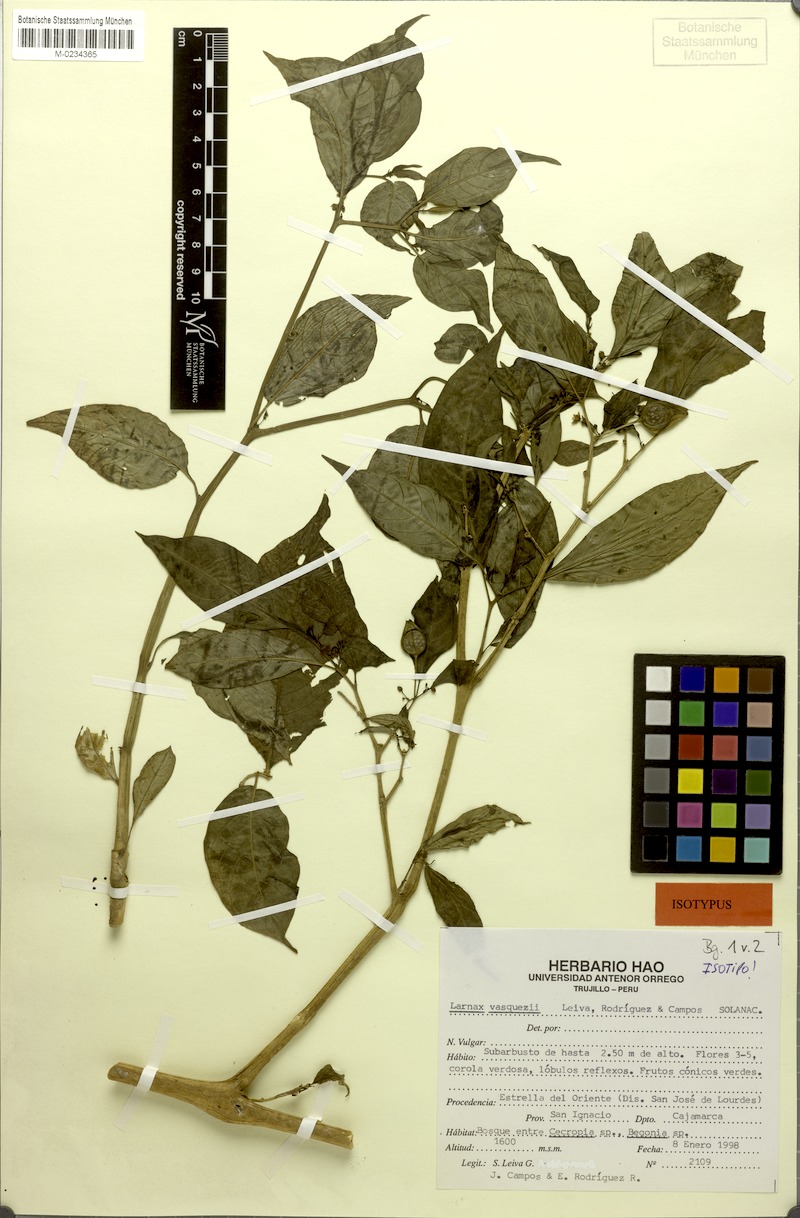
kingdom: Plantae
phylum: Tracheophyta
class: Magnoliopsida
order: Solanales
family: Solanaceae
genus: Deprea
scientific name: Deprea vasquezii
